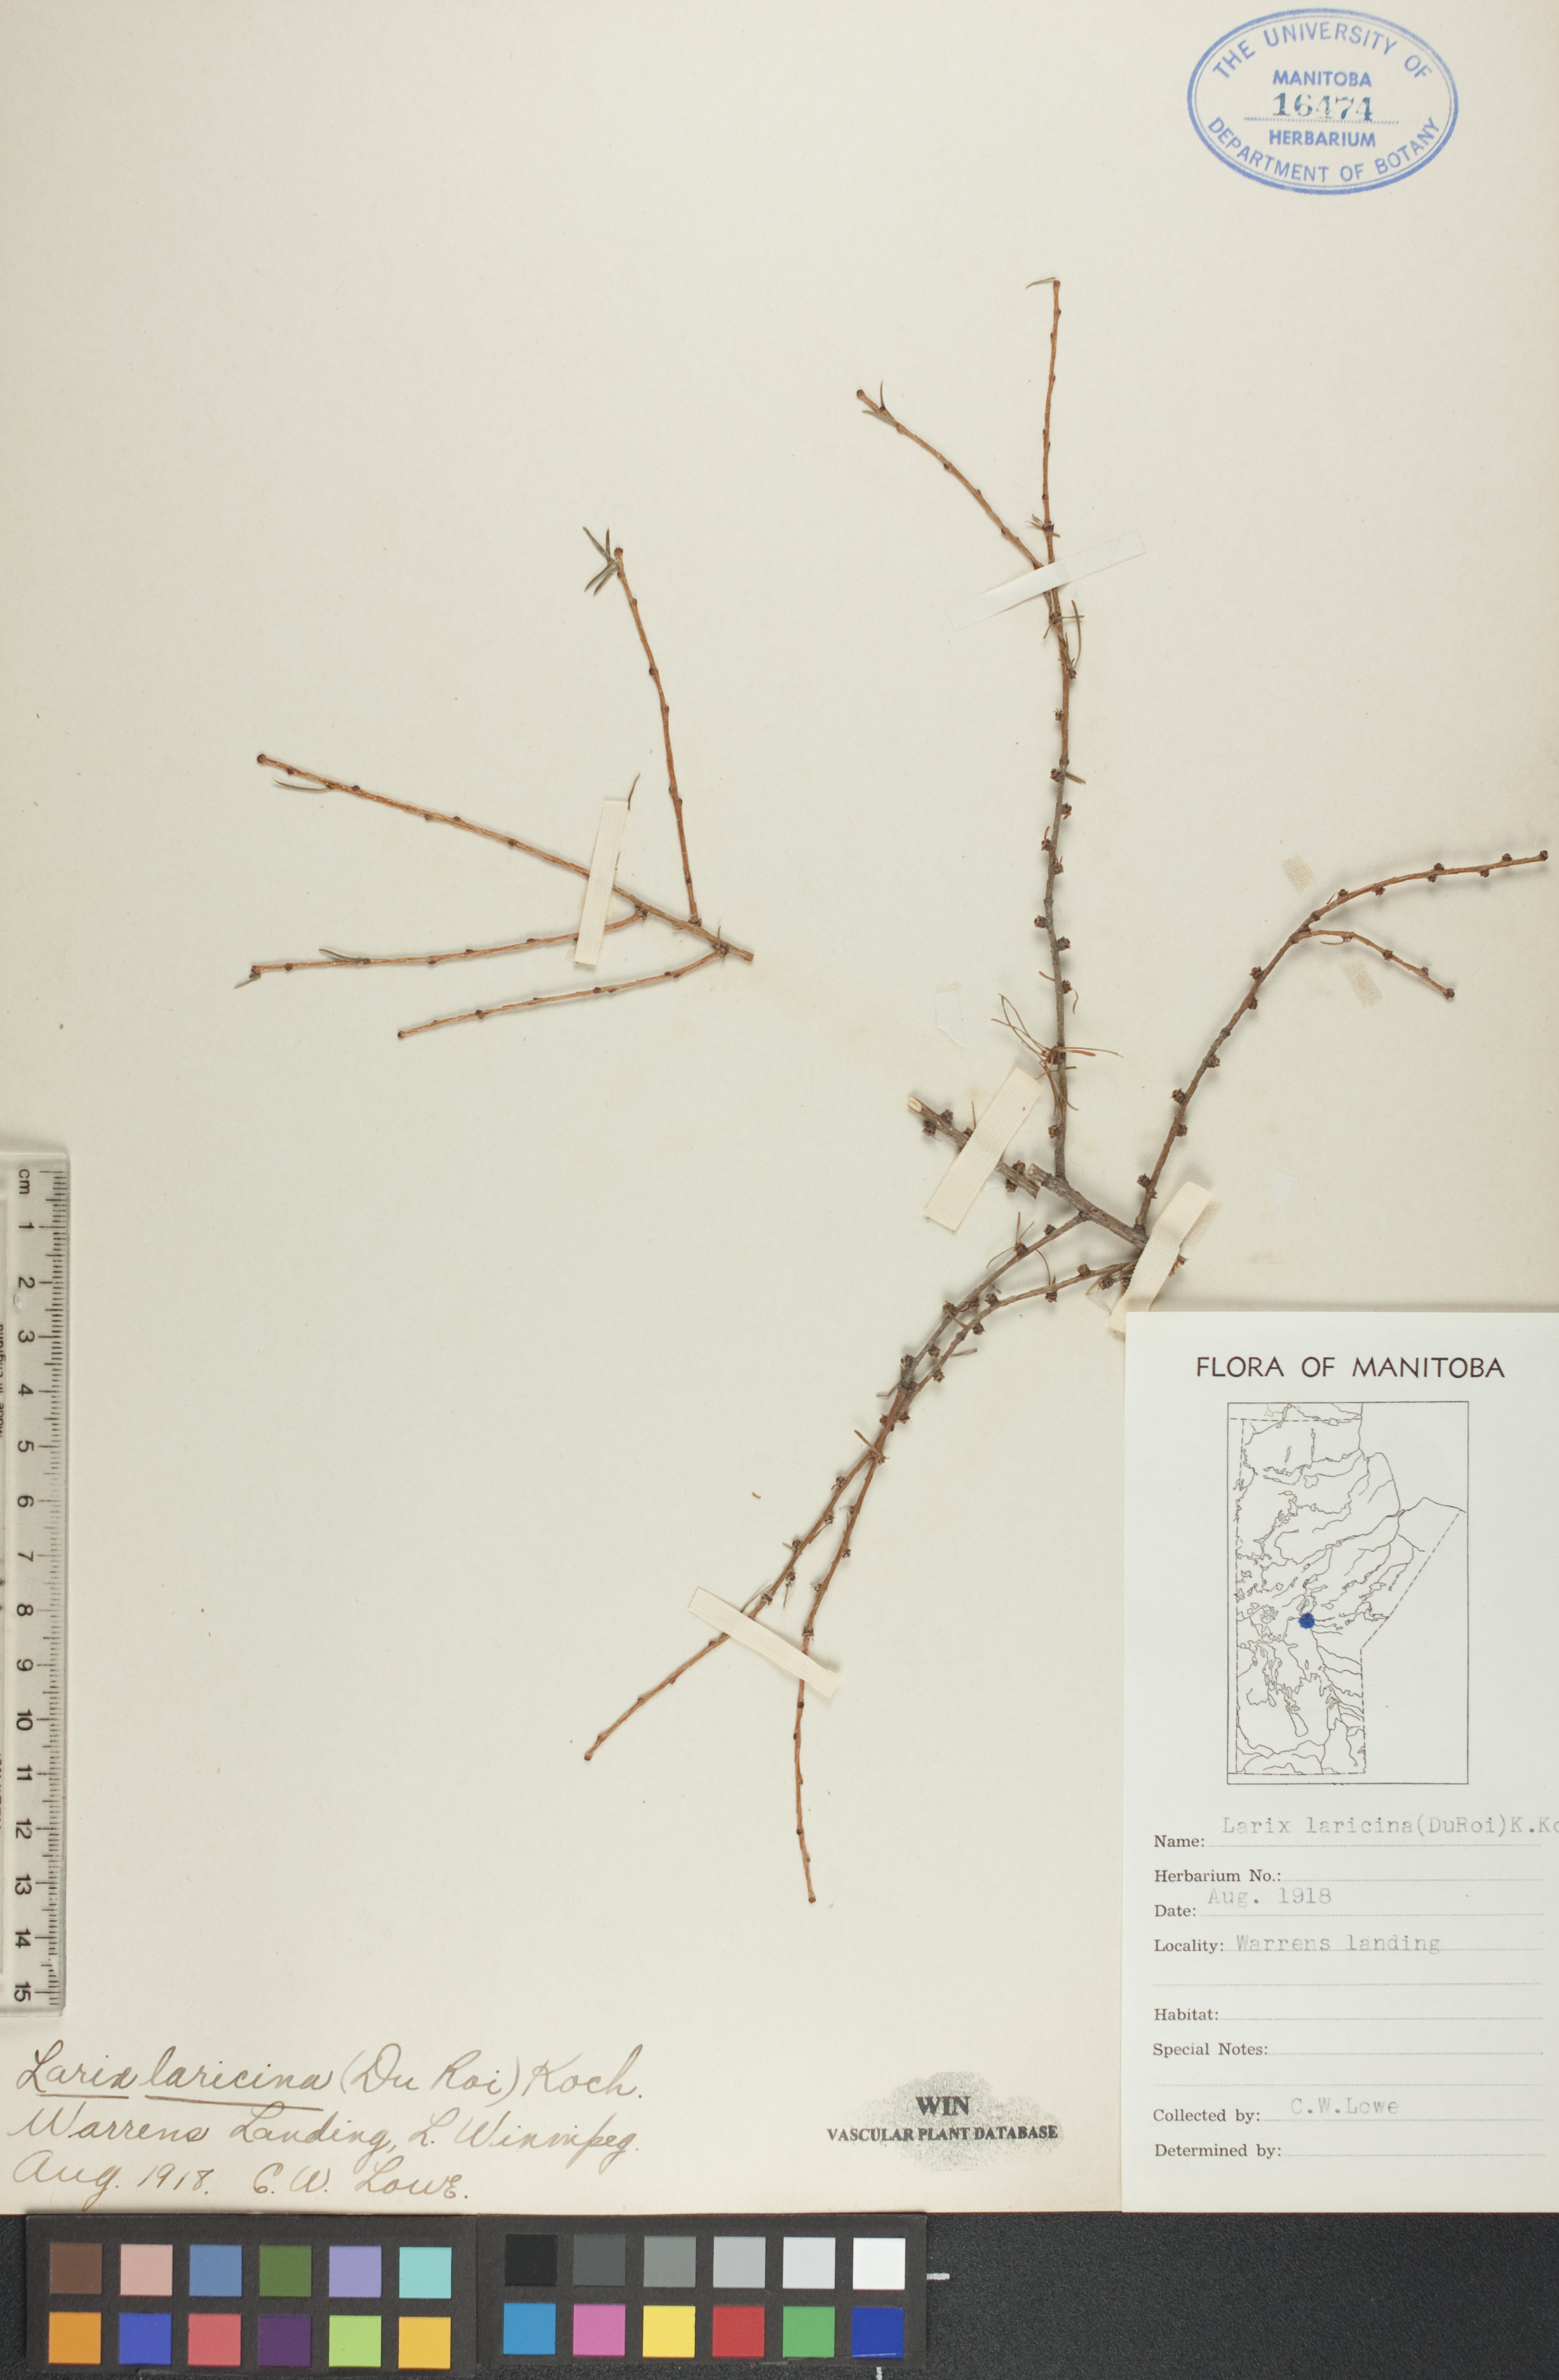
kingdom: Plantae
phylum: Tracheophyta
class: Pinopsida
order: Pinales
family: Pinaceae
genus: Larix
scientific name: Larix laricina
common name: American larch
